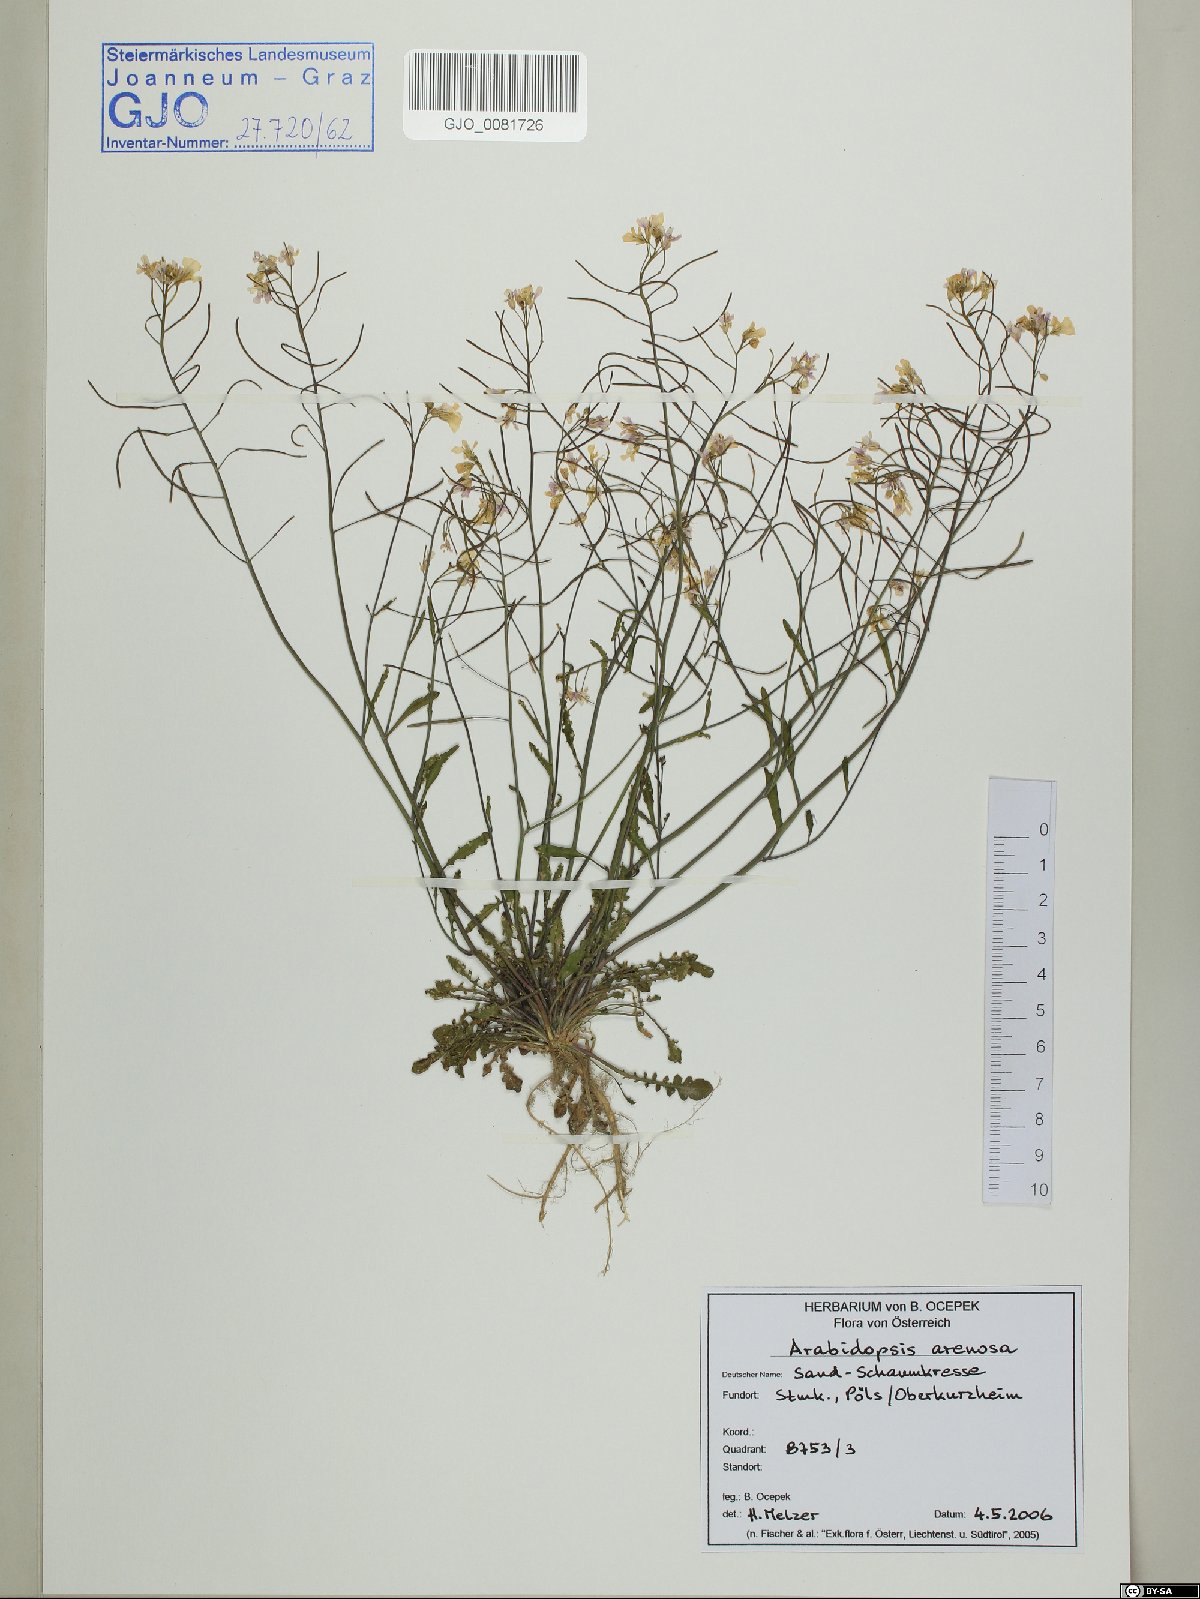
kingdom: Plantae
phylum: Tracheophyta
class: Magnoliopsida
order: Brassicales
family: Brassicaceae
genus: Arabidopsis
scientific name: Arabidopsis arenosa
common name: Sand rock-cress
